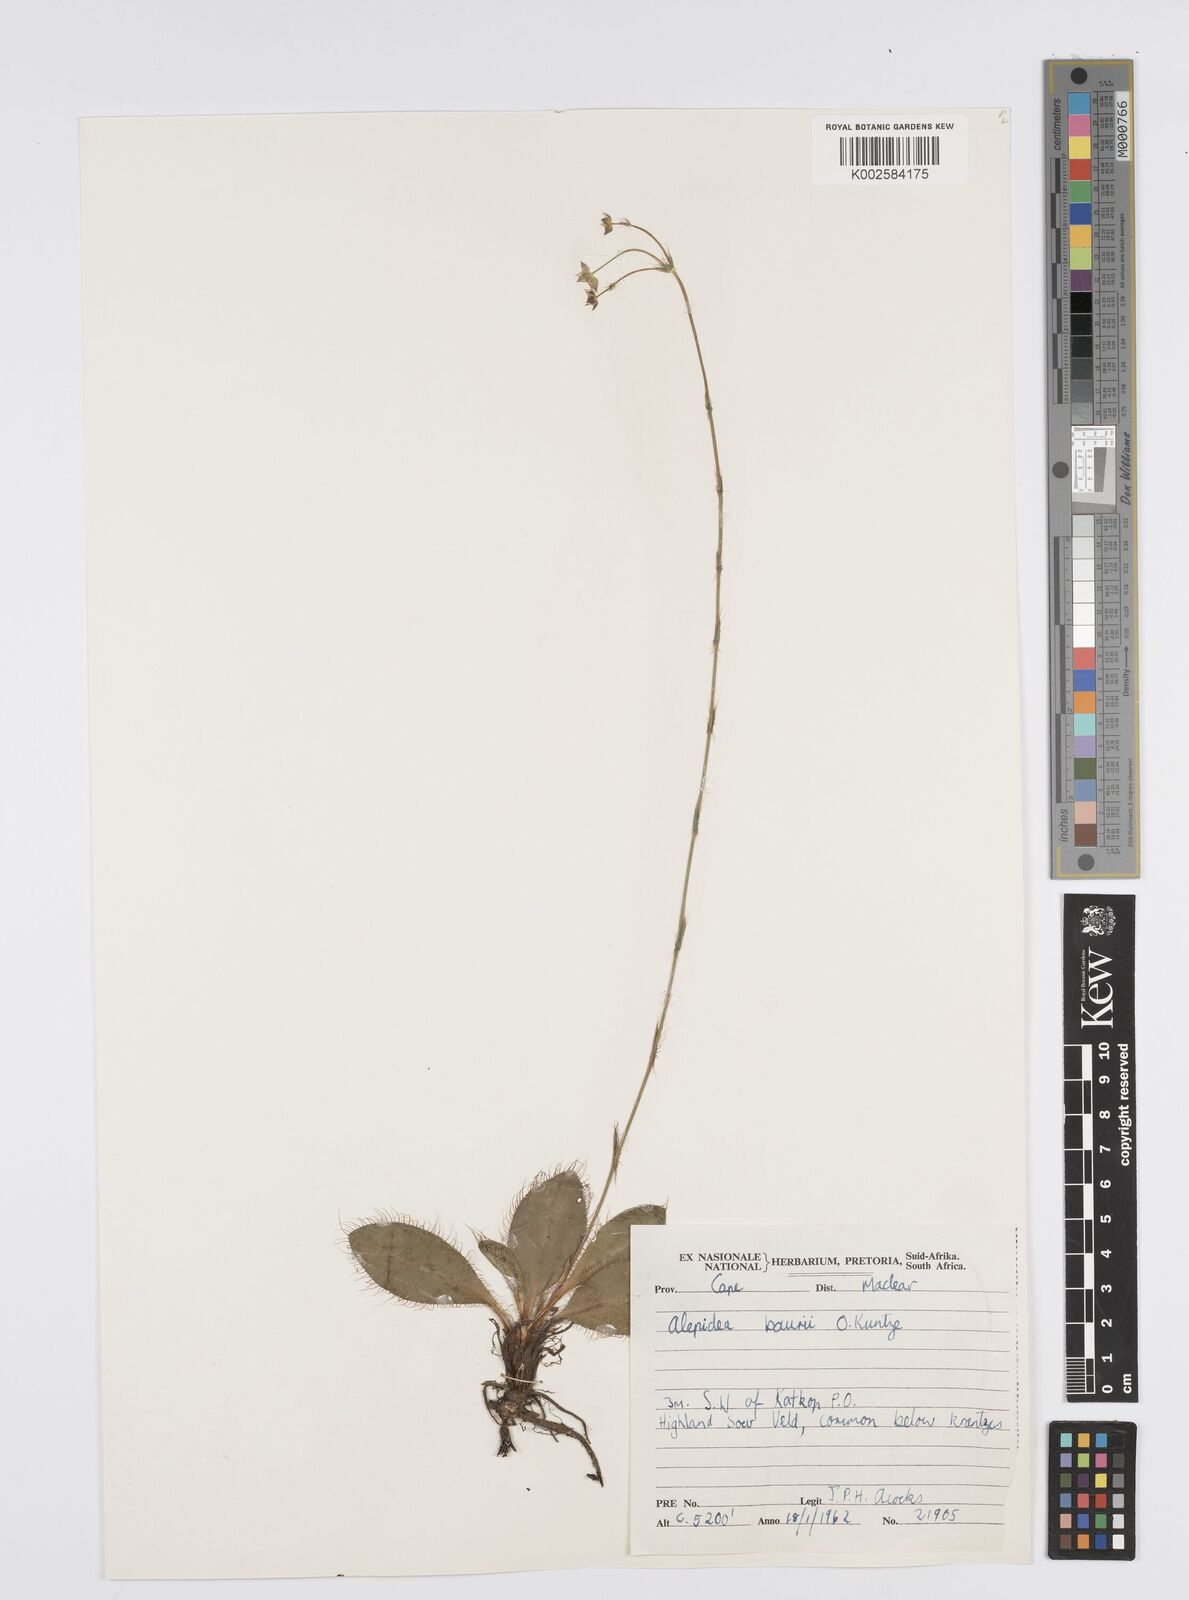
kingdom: Plantae
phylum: Tracheophyta
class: Magnoliopsida
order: Apiales
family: Apiaceae
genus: Alepidea
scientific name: Alepidea natalensis
